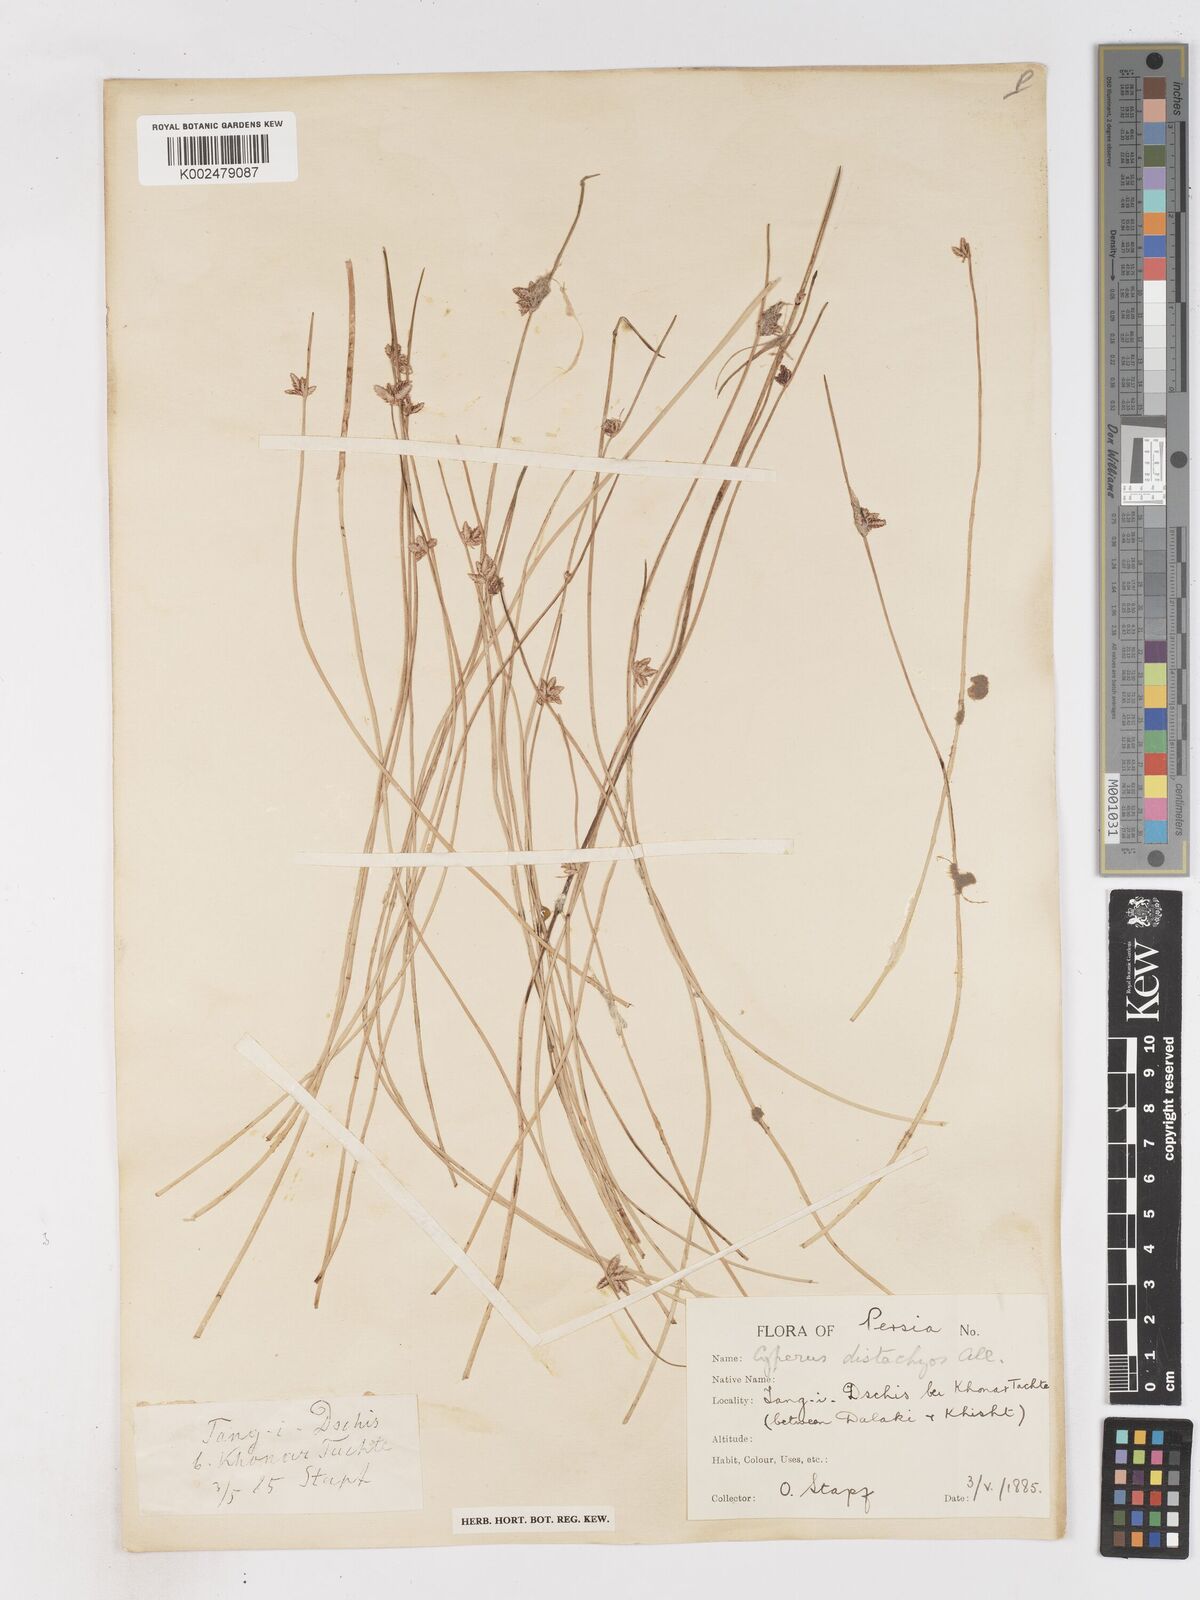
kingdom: Plantae
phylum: Tracheophyta
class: Liliopsida
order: Poales
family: Cyperaceae
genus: Cyperus
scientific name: Cyperus laevigatus
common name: Smooth flat sedge
